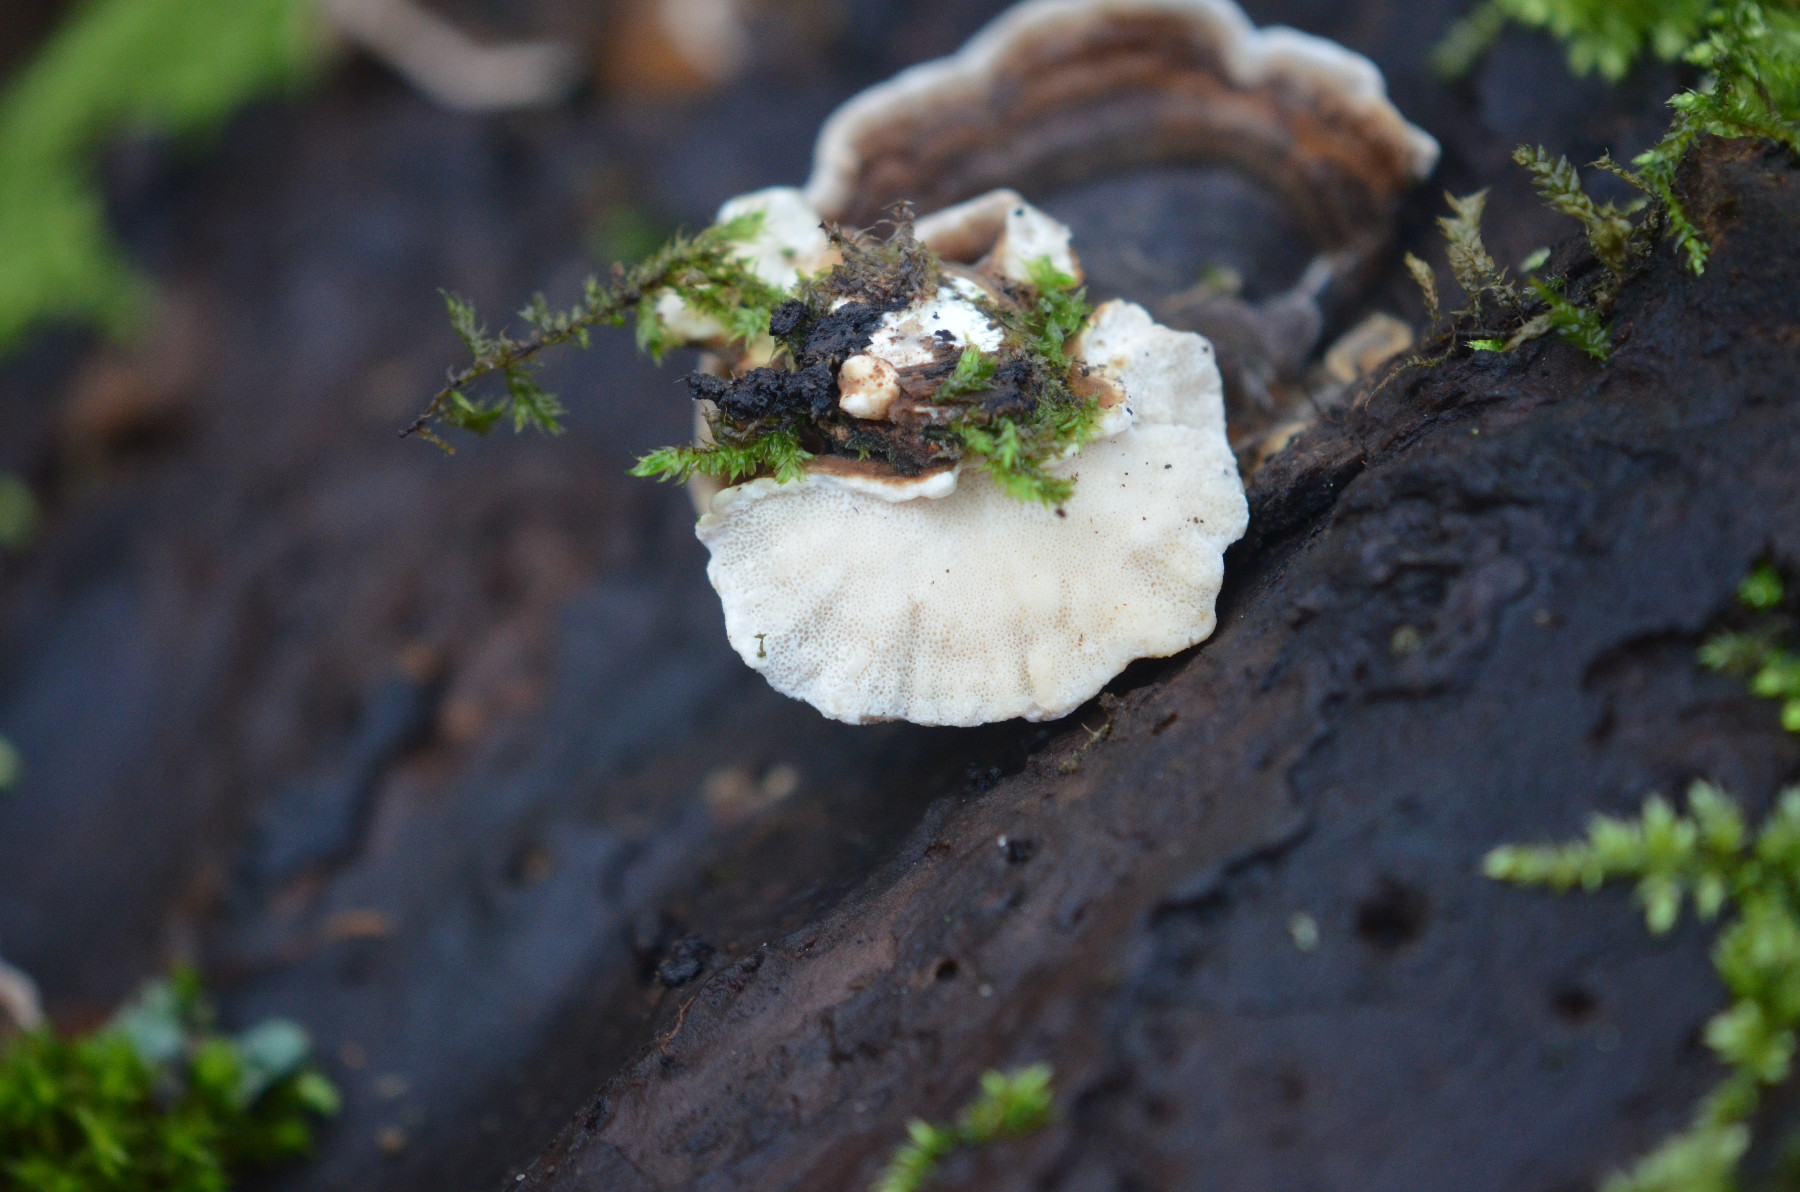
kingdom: Fungi
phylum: Basidiomycota
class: Agaricomycetes
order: Polyporales
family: Polyporaceae
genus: Trametes
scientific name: Trametes versicolor
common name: broget læderporesvamp
